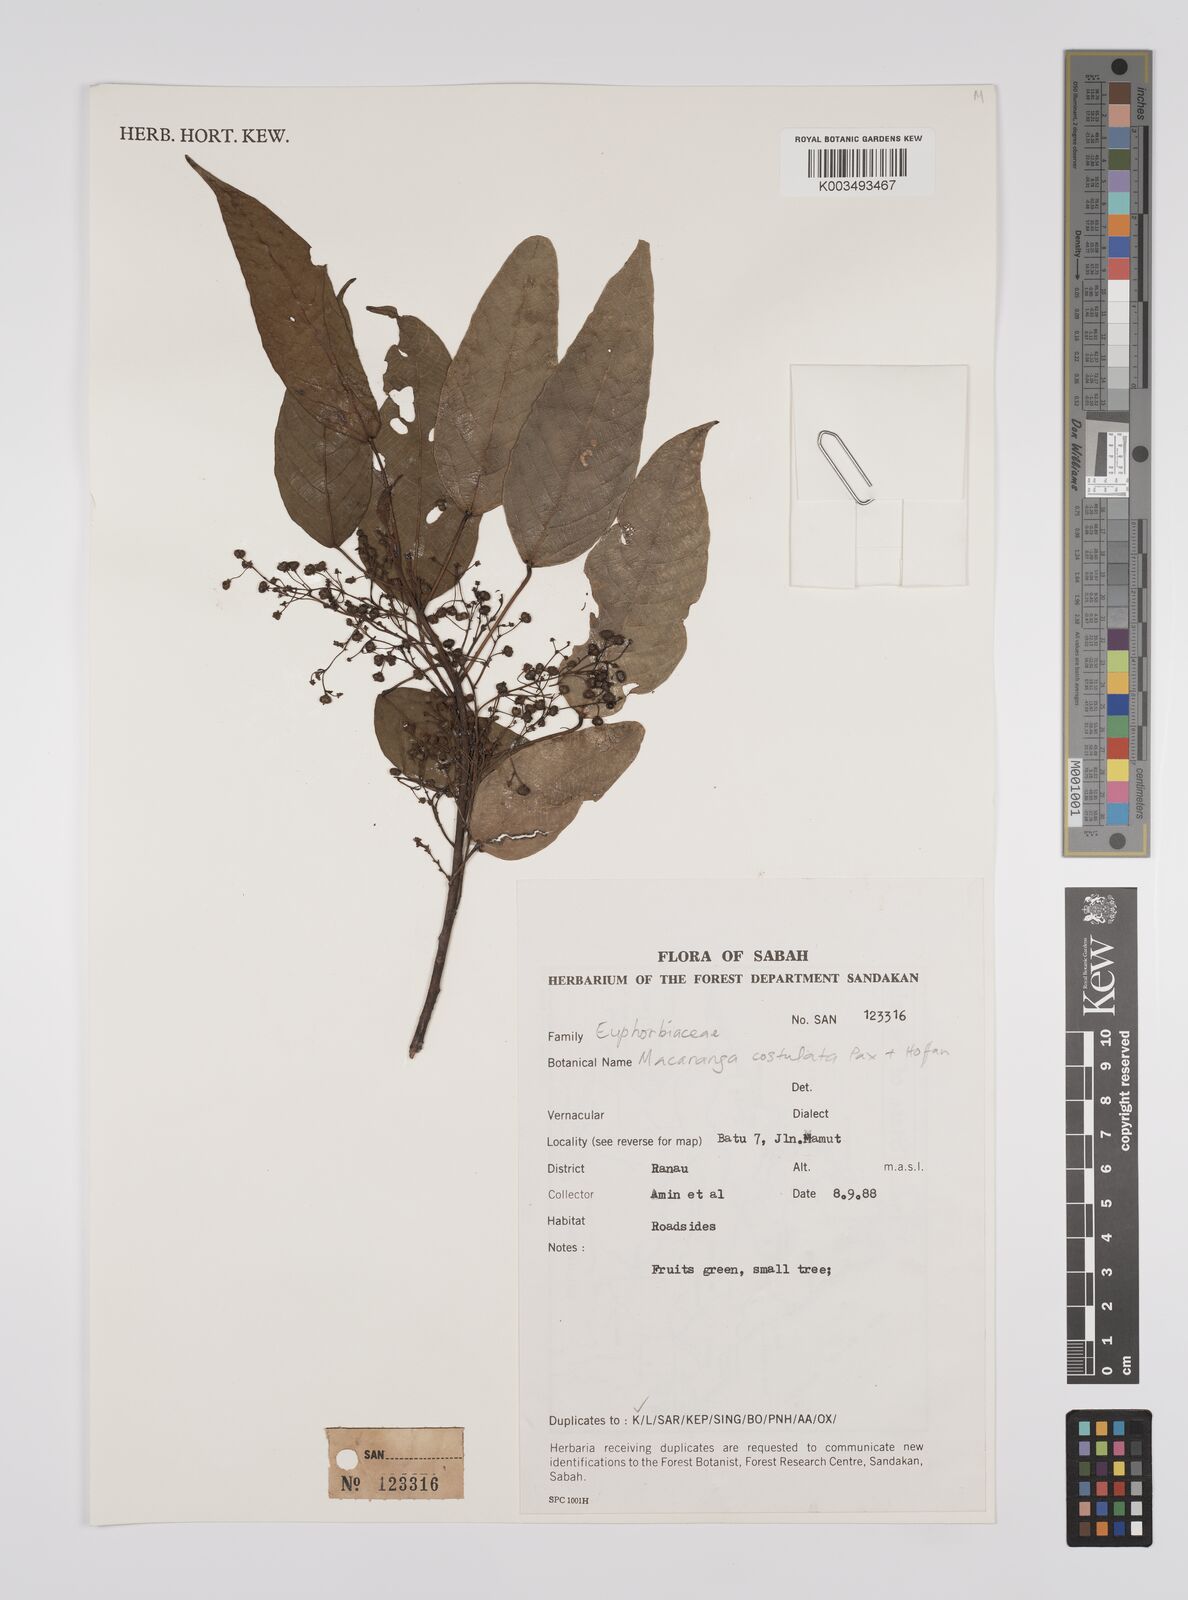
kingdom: Plantae
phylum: Tracheophyta
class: Magnoliopsida
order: Malpighiales
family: Euphorbiaceae
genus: Macaranga
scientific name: Macaranga costulata
